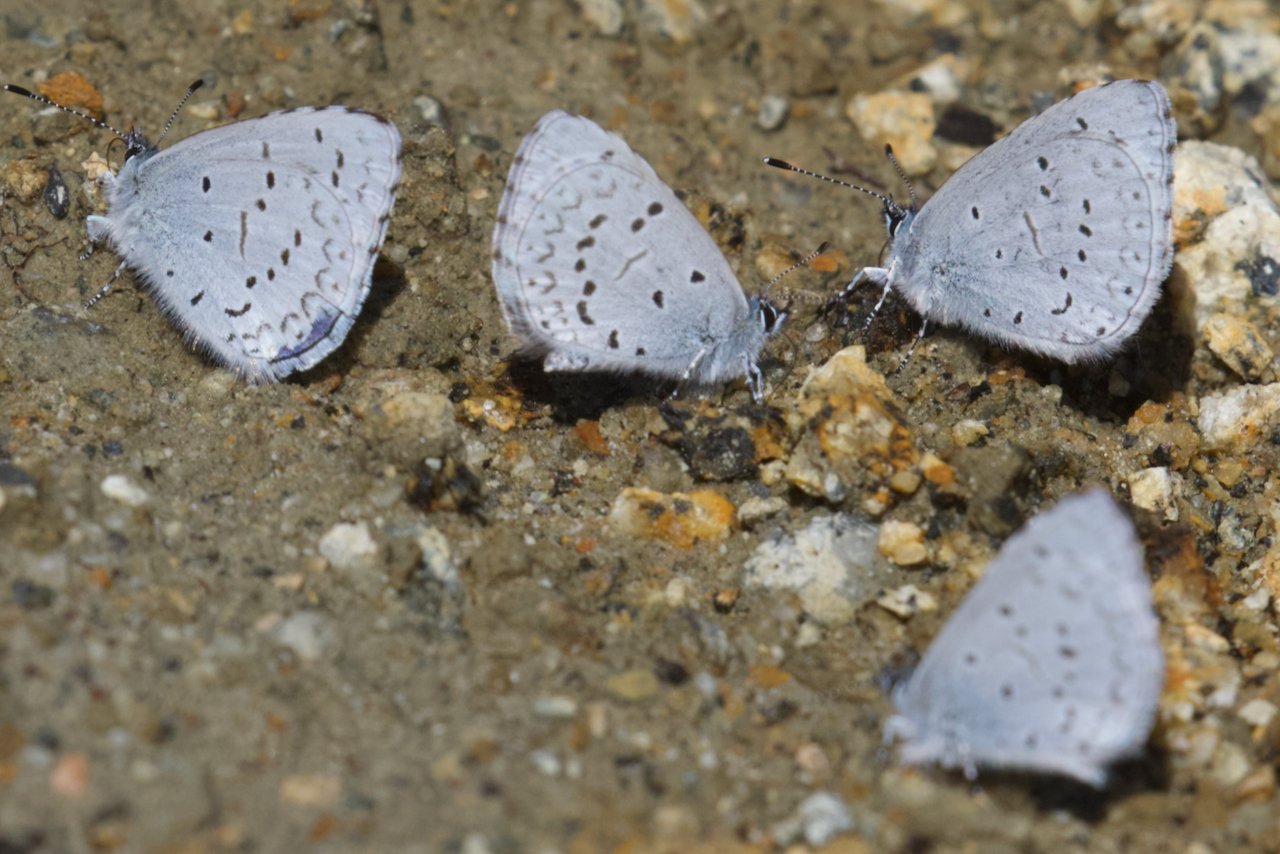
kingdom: Animalia
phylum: Arthropoda
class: Insecta
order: Lepidoptera
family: Lycaenidae
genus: Celastrina
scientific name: Celastrina ladon
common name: Echo Azure
